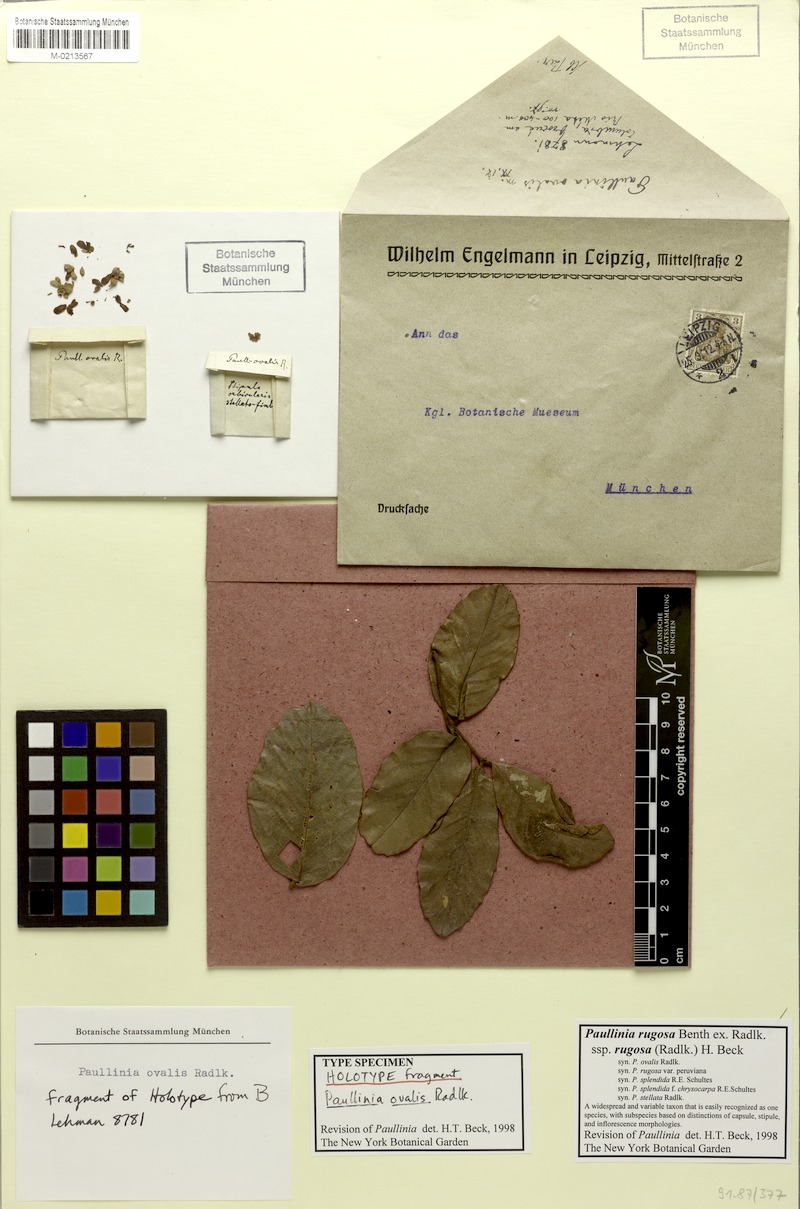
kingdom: Plantae
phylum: Tracheophyta
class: Magnoliopsida
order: Sapindales
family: Sapindaceae
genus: Paullinia
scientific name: Paullinia rugosa
